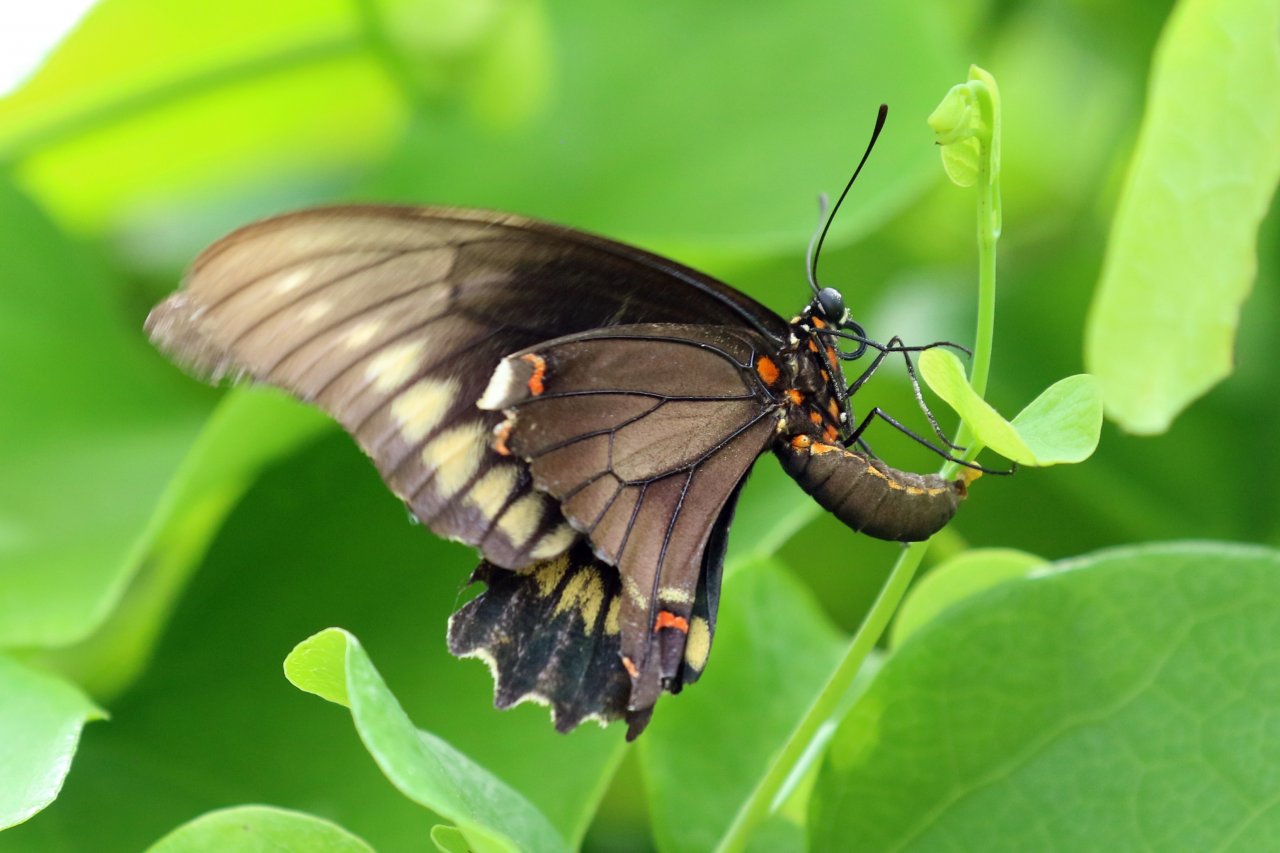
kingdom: Animalia
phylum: Arthropoda
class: Insecta
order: Lepidoptera
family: Papilionidae
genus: Battus
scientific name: Battus polydamas
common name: Polydamas Swallowtail
